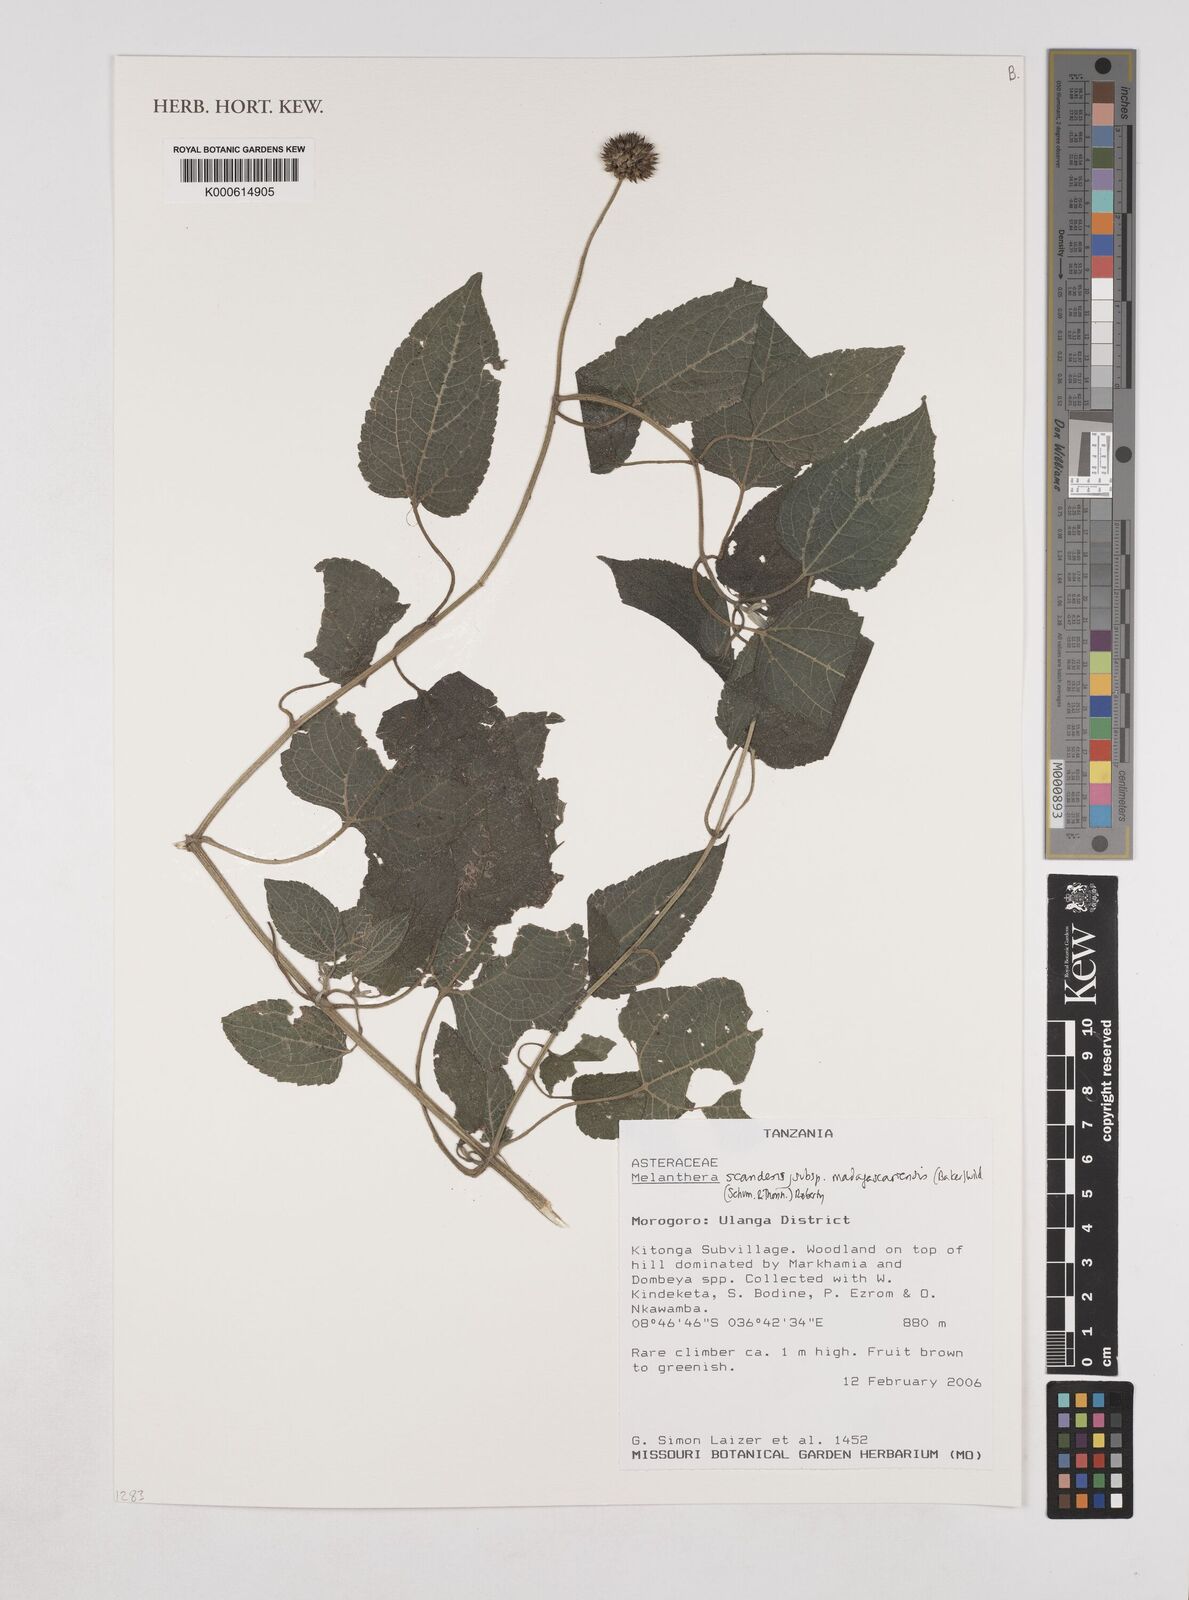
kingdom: Plantae
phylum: Tracheophyta
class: Magnoliopsida
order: Asterales
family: Asteraceae
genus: Melanthera
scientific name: Melanthera
